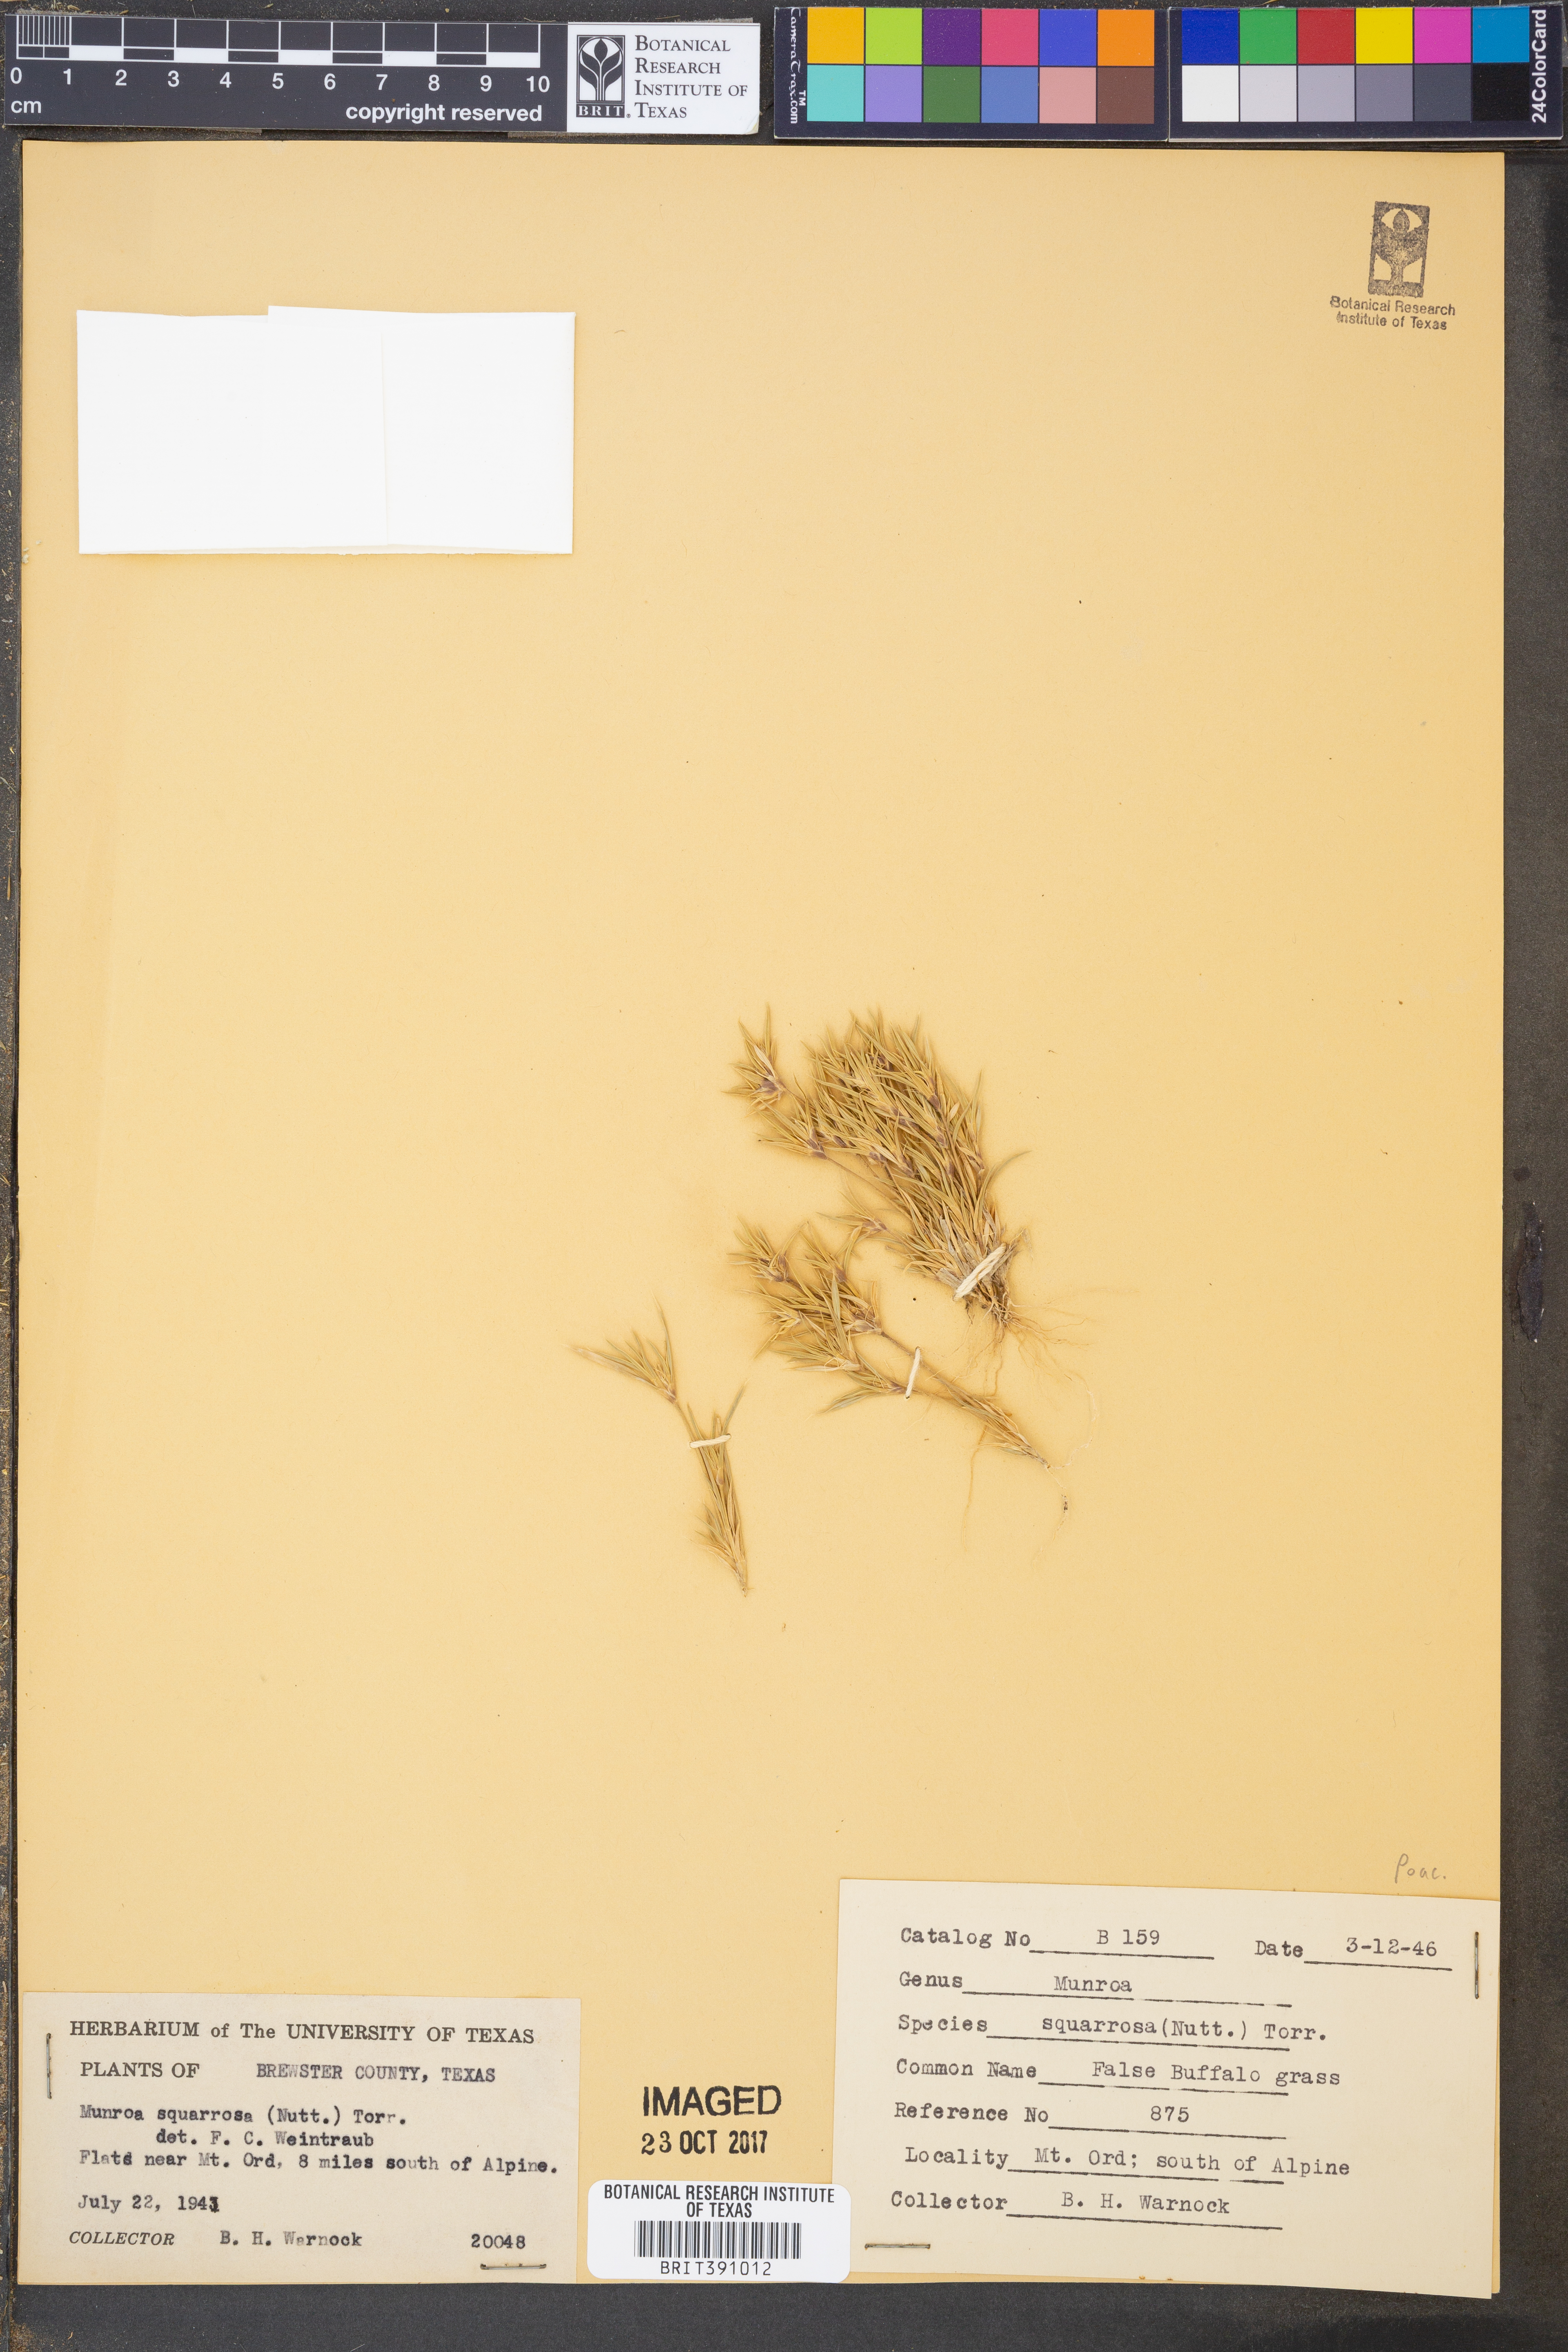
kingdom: Plantae
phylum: Tracheophyta
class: Liliopsida
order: Poales
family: Poaceae
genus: Munroa
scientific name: Munroa squarrosa
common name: False buffalo grass
